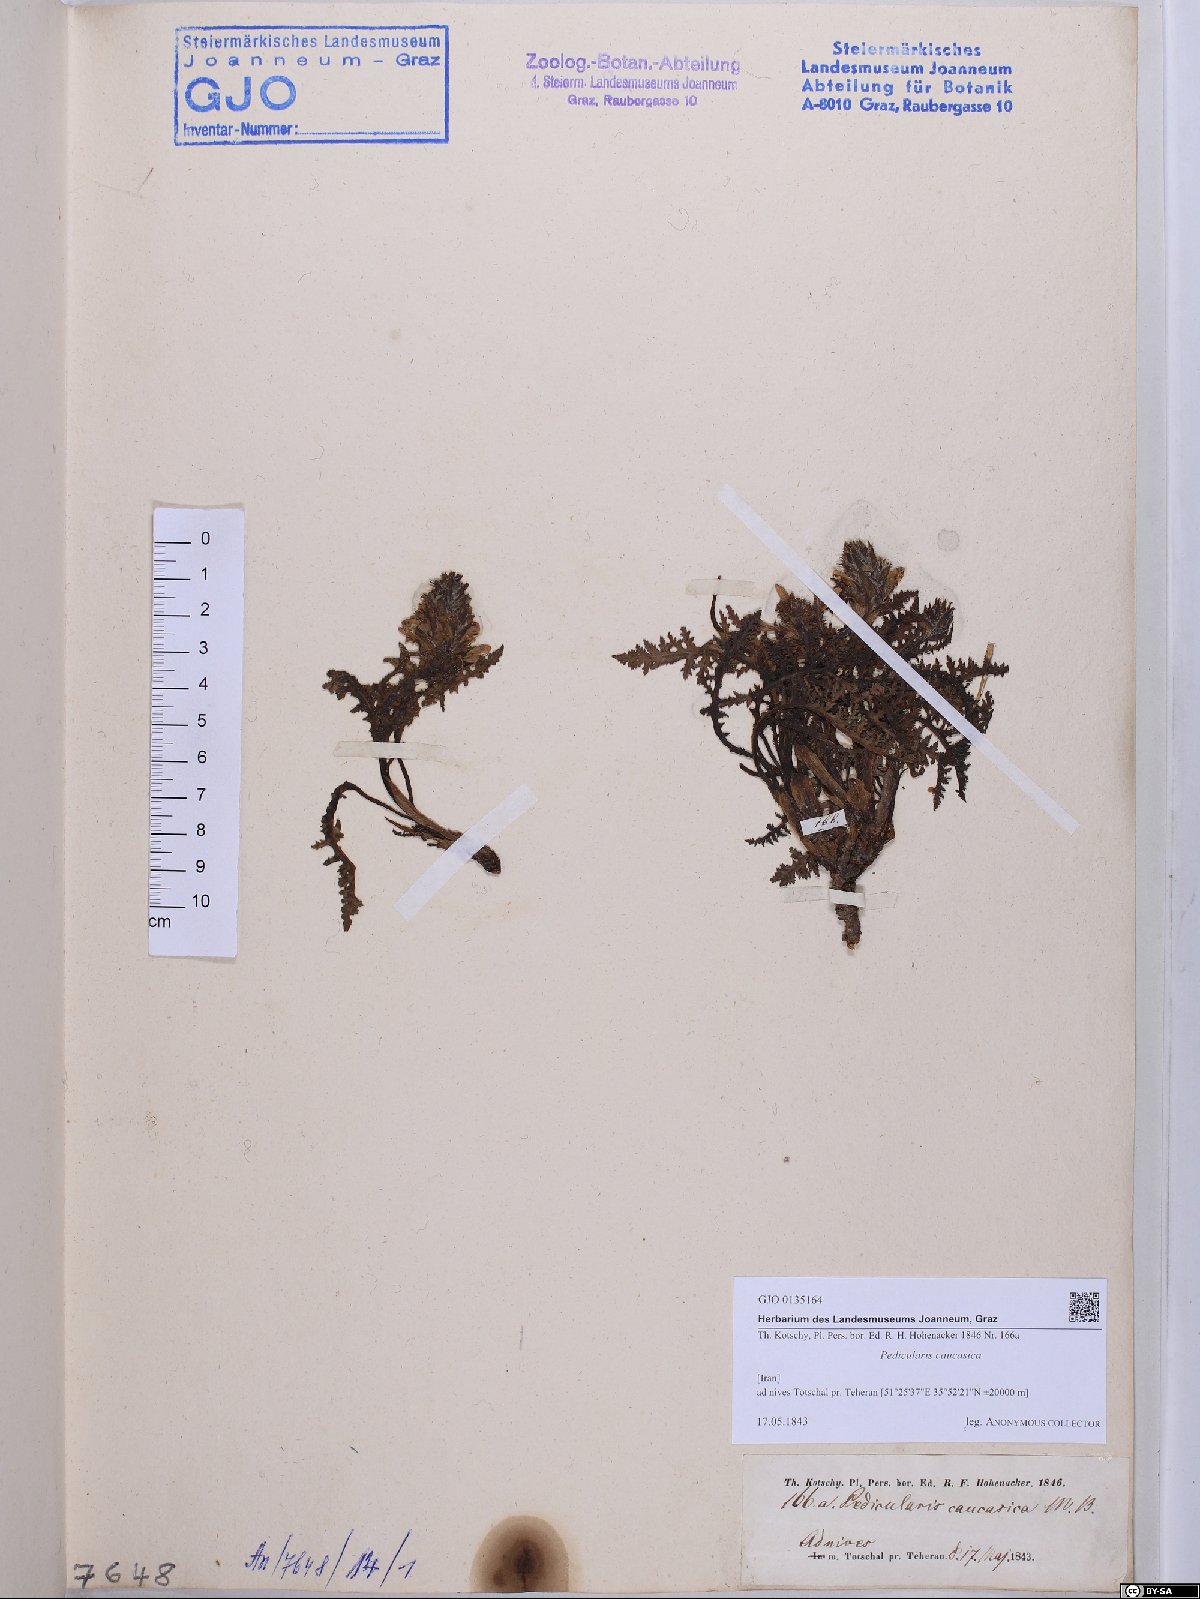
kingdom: Plantae
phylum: Tracheophyta
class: Magnoliopsida
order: Lamiales
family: Orobanchaceae
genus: Pedicularis
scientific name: Pedicularis caucasica
